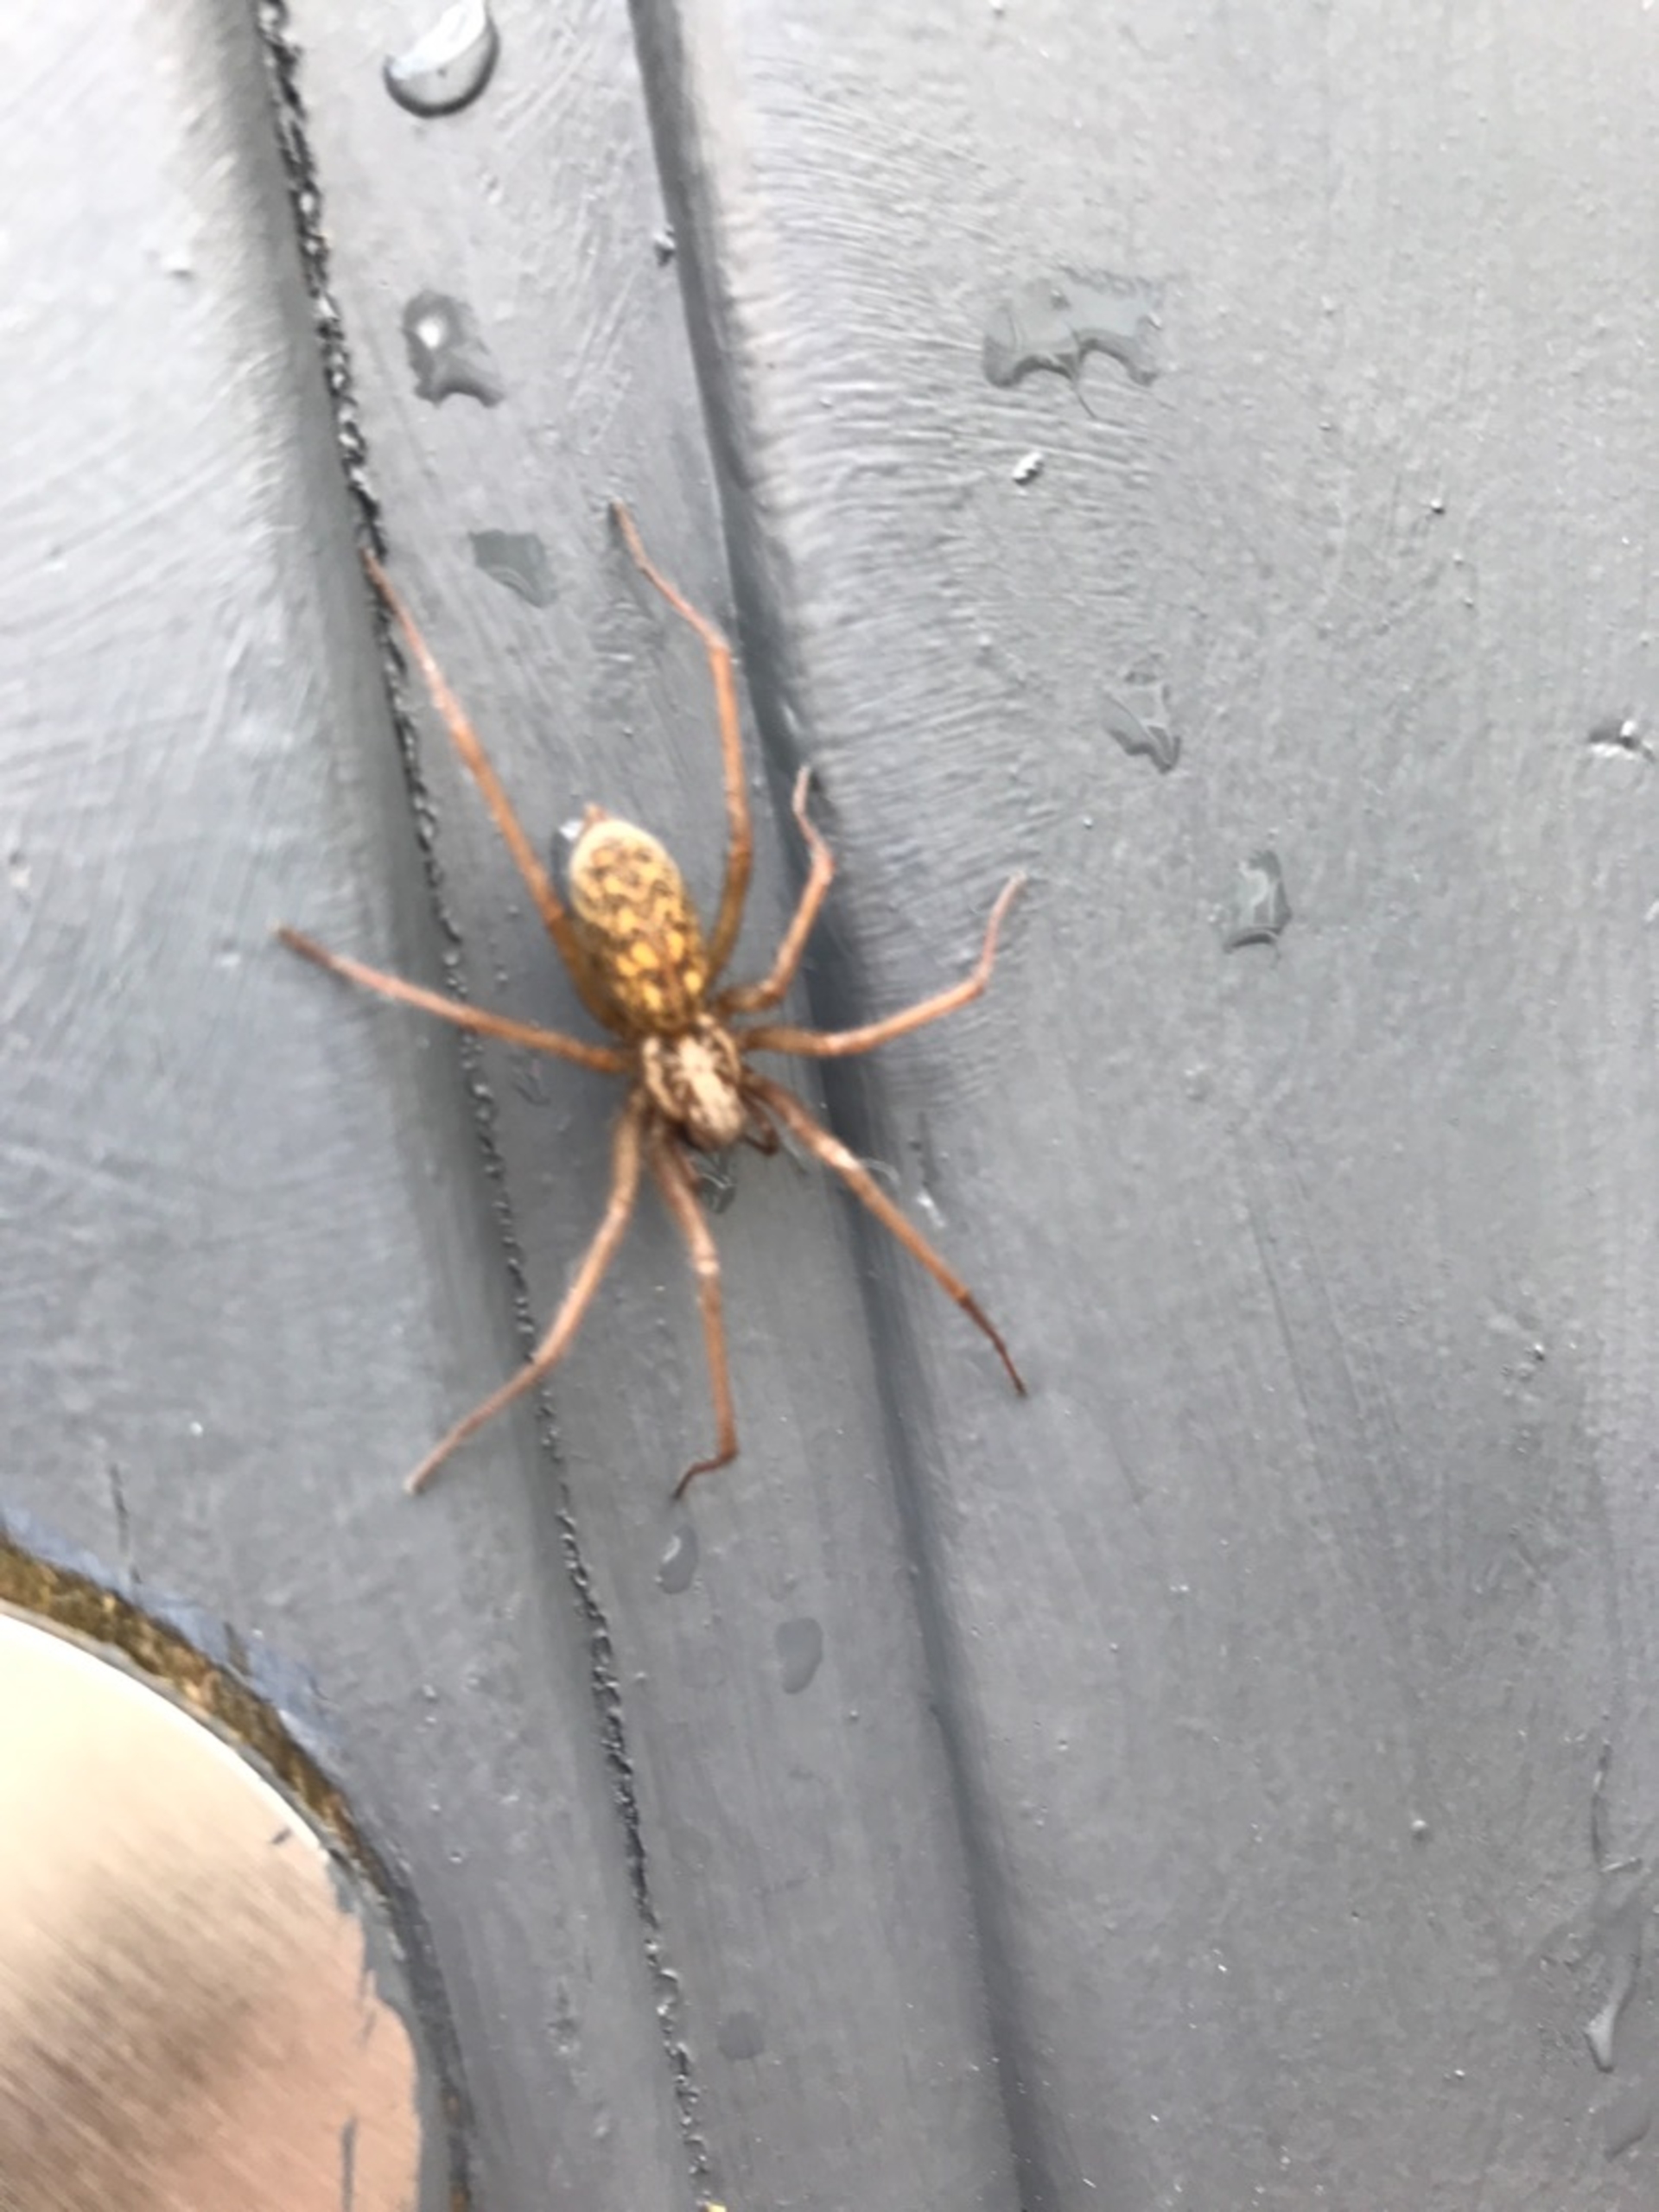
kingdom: Animalia
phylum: Arthropoda
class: Arachnida
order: Araneae
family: Agelenidae
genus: Eratigena
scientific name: Eratigena atrica
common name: Stor husedderkop
